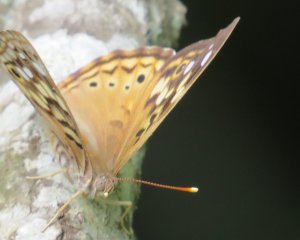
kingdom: Animalia
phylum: Arthropoda
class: Insecta
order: Lepidoptera
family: Nymphalidae
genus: Asterocampa
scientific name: Asterocampa celtis
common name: Hackberry Emperor
